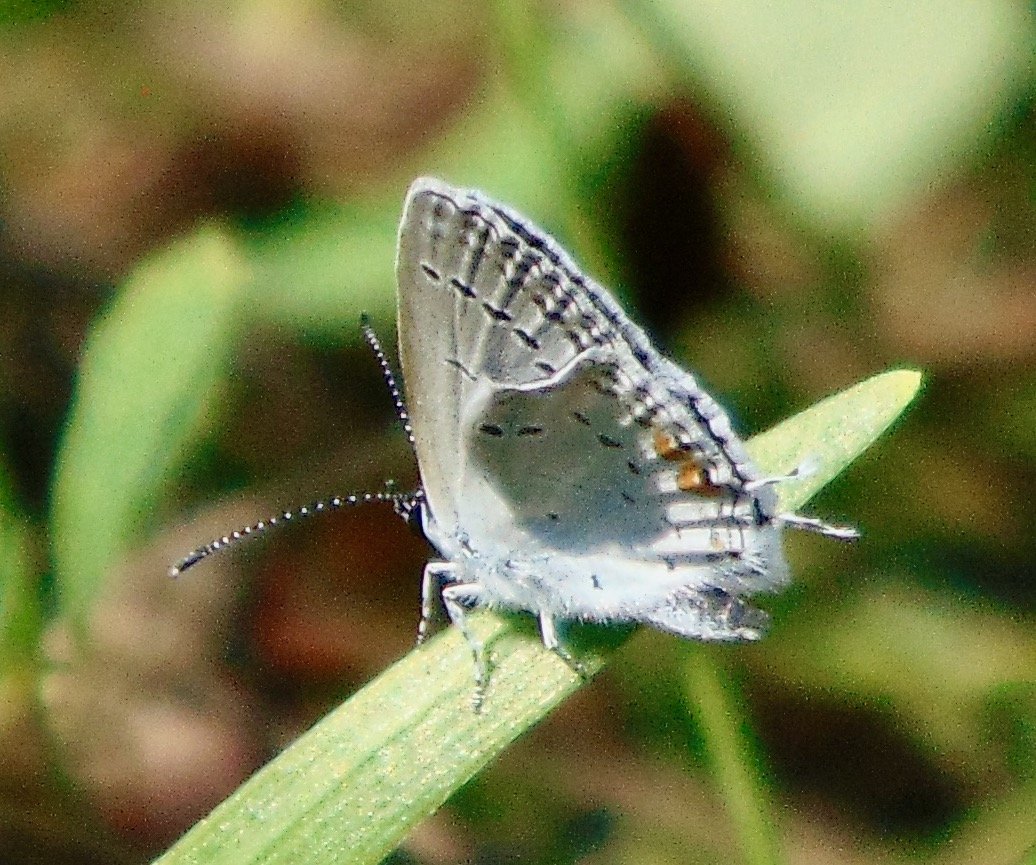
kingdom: Animalia
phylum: Arthropoda
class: Insecta
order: Lepidoptera
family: Lycaenidae
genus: Elkalyce
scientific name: Elkalyce comyntas
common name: Eastern Tailed-Blue
